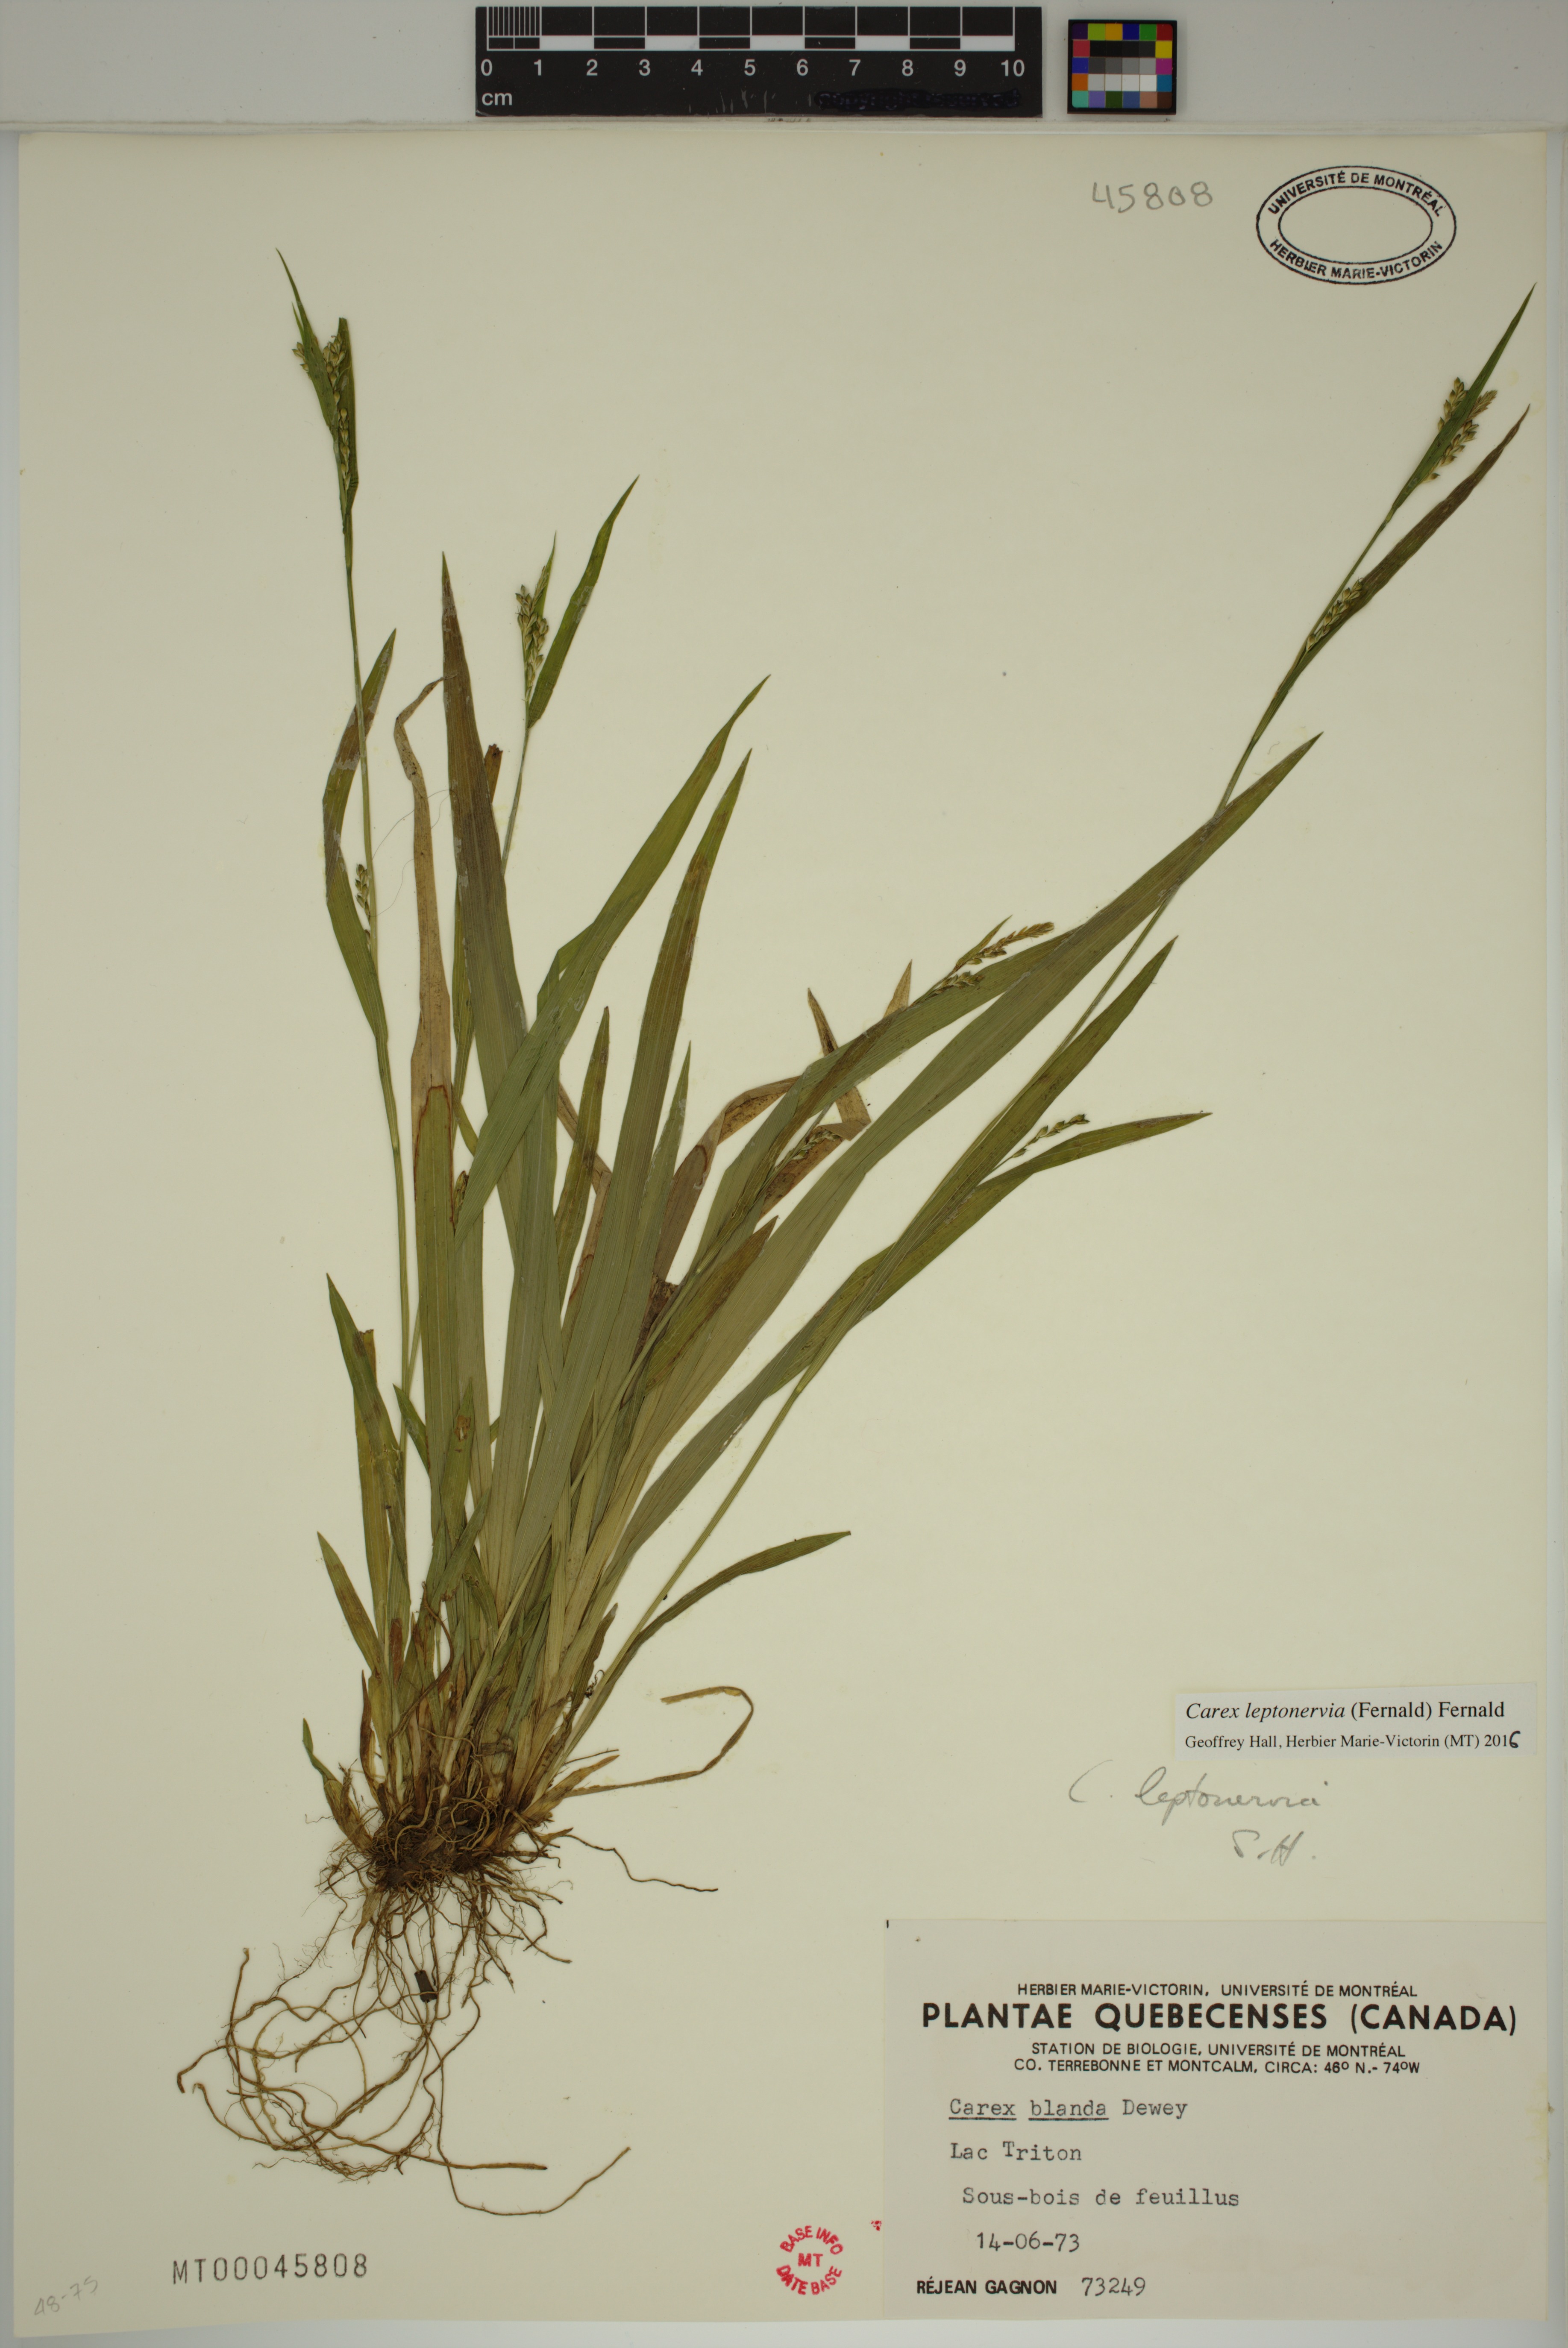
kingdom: Plantae
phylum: Tracheophyta
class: Liliopsida
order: Poales
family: Cyperaceae
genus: Carex
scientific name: Carex leptonervia
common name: Few-nerved wood sedge
